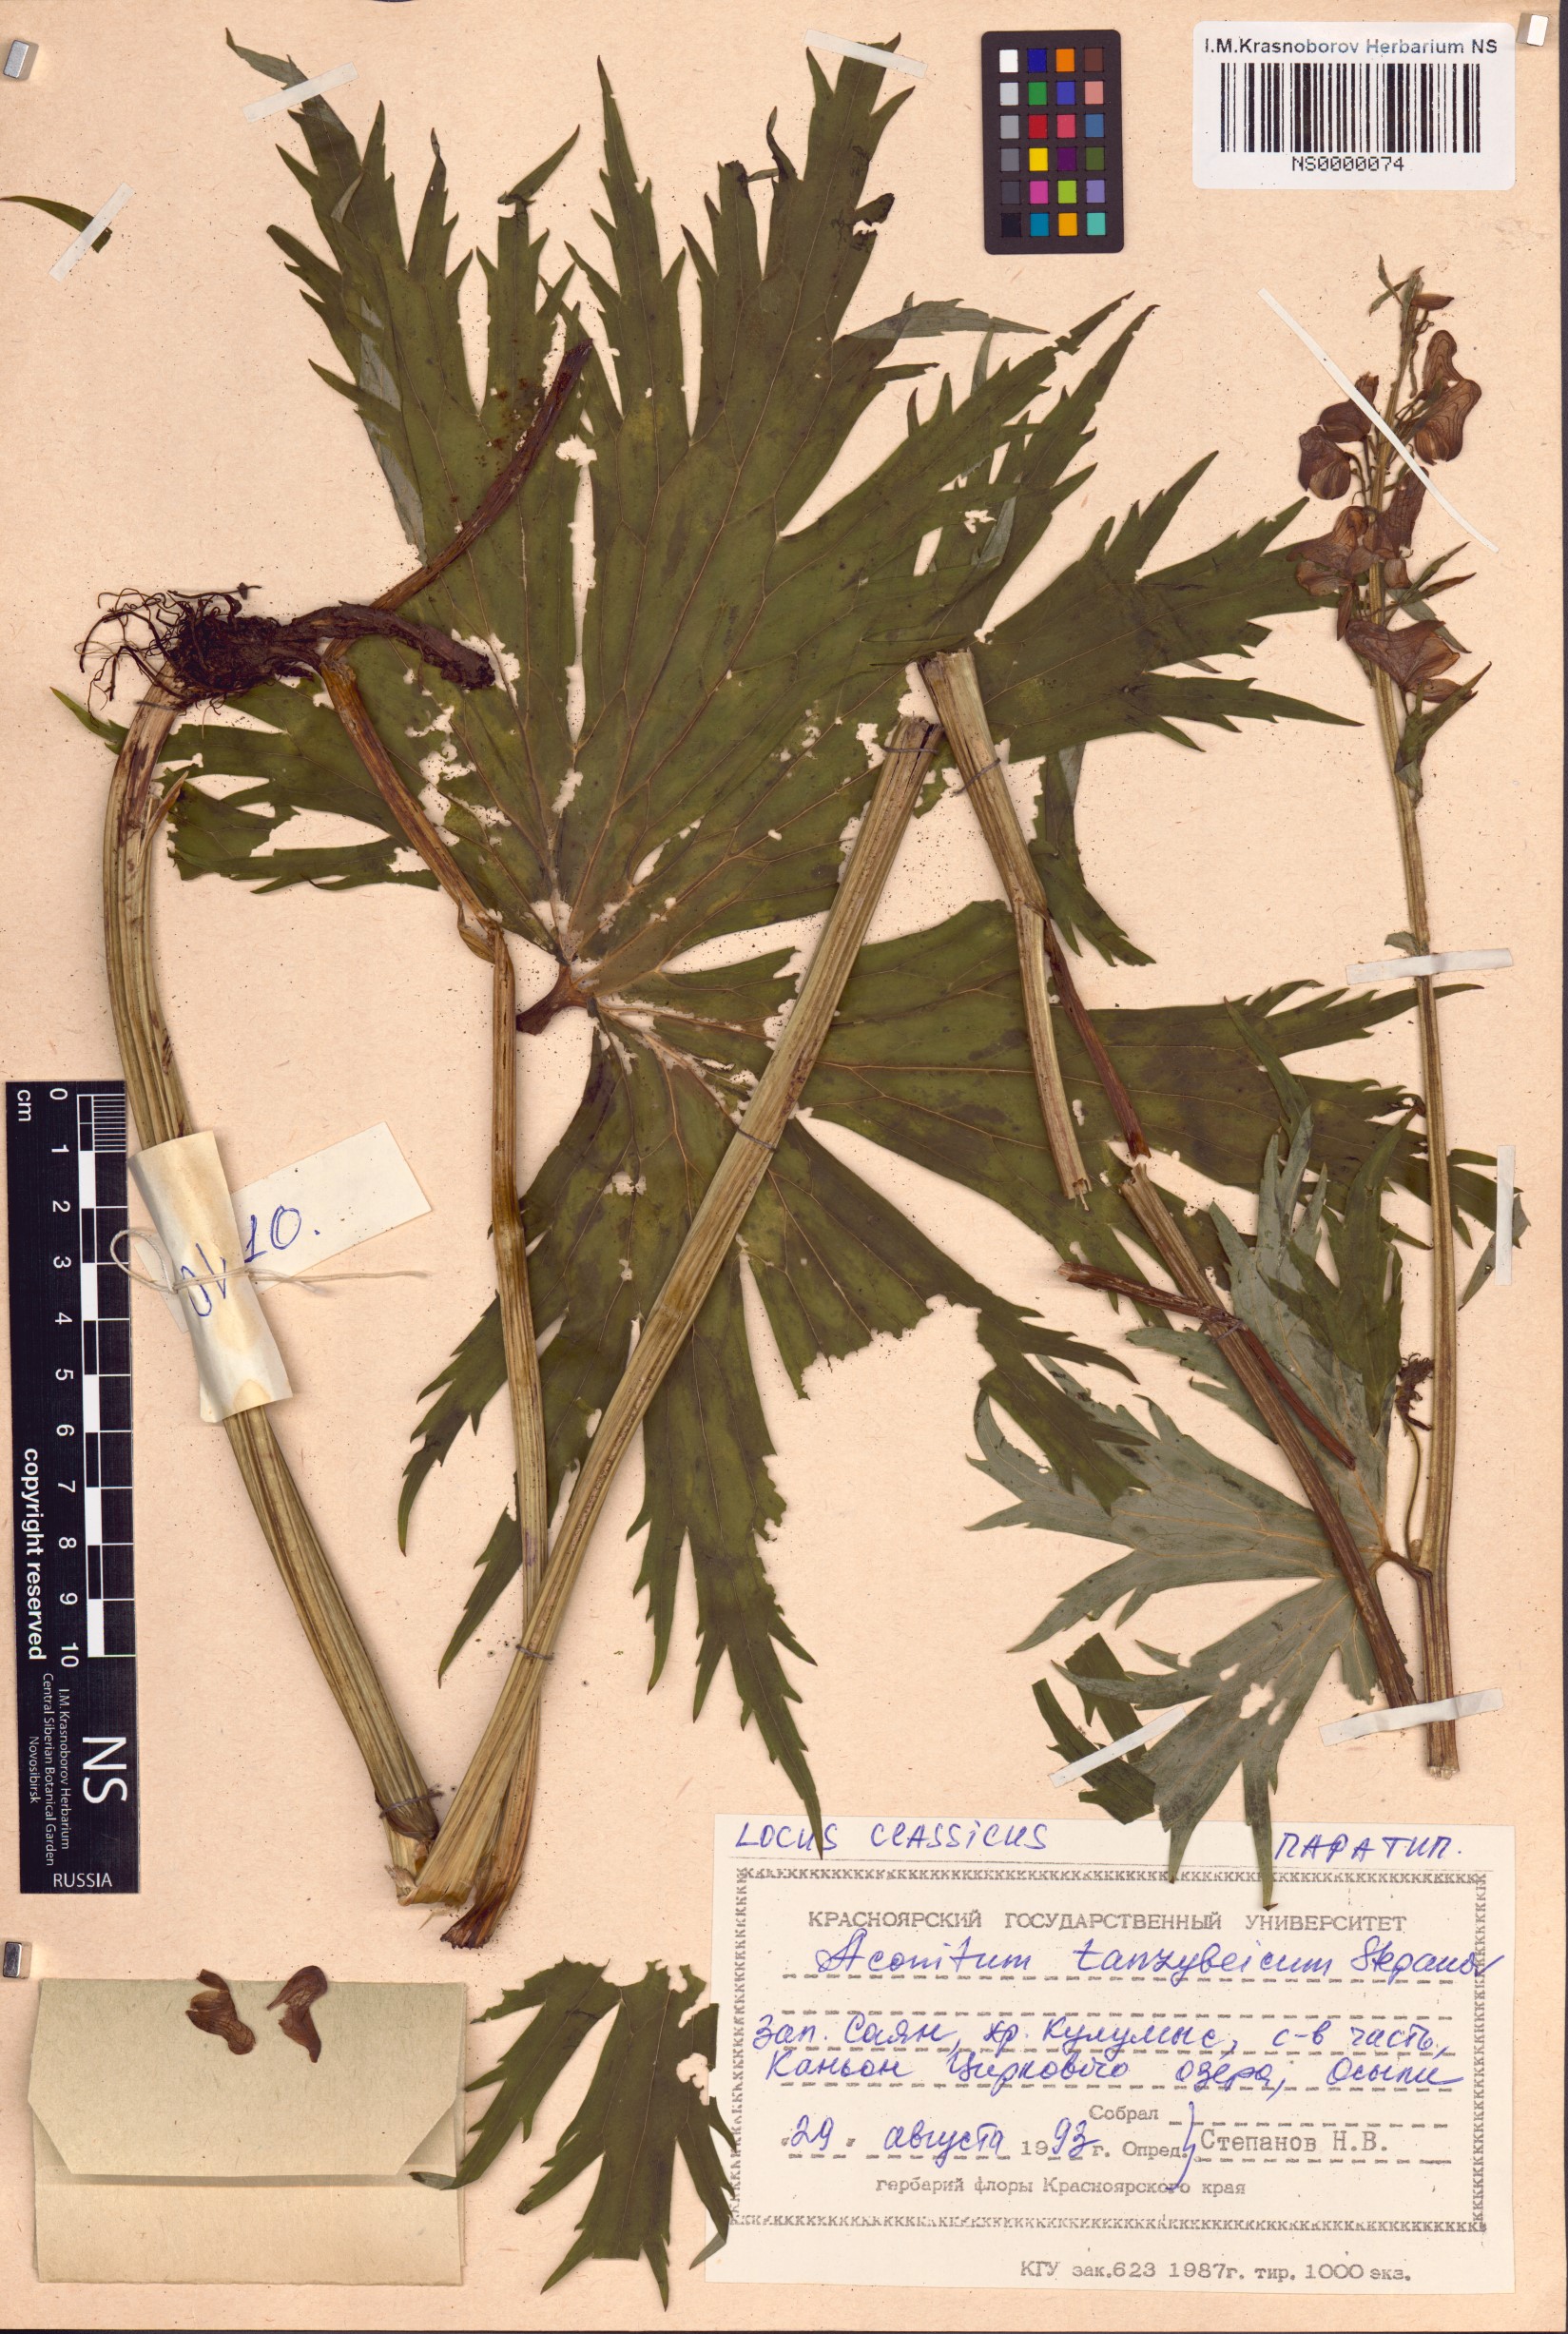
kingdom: Plantae
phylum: Tracheophyta
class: Magnoliopsida
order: Ranunculales
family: Ranunculaceae
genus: Aconitum
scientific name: Aconitum tanzybeicum
